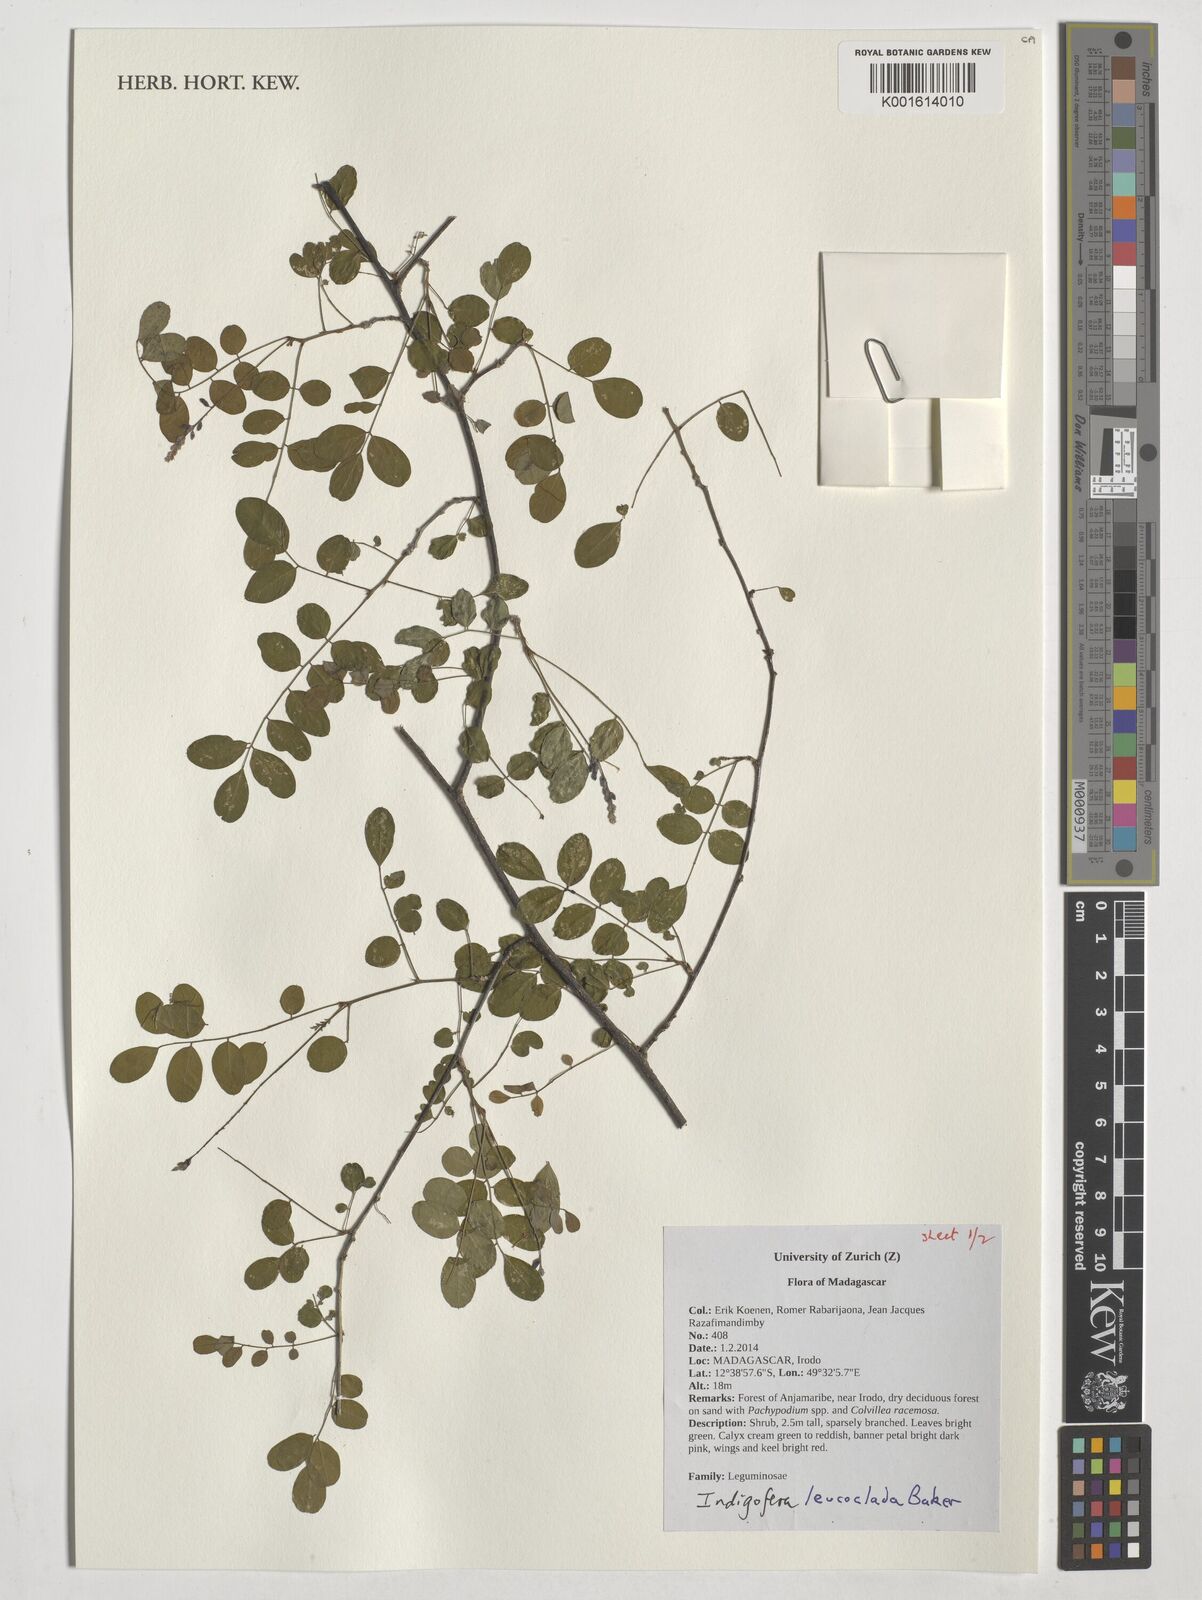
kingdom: Plantae
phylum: Tracheophyta
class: Magnoliopsida
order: Fabales
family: Fabaceae
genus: Indigofera
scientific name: Indigofera leucoclada
